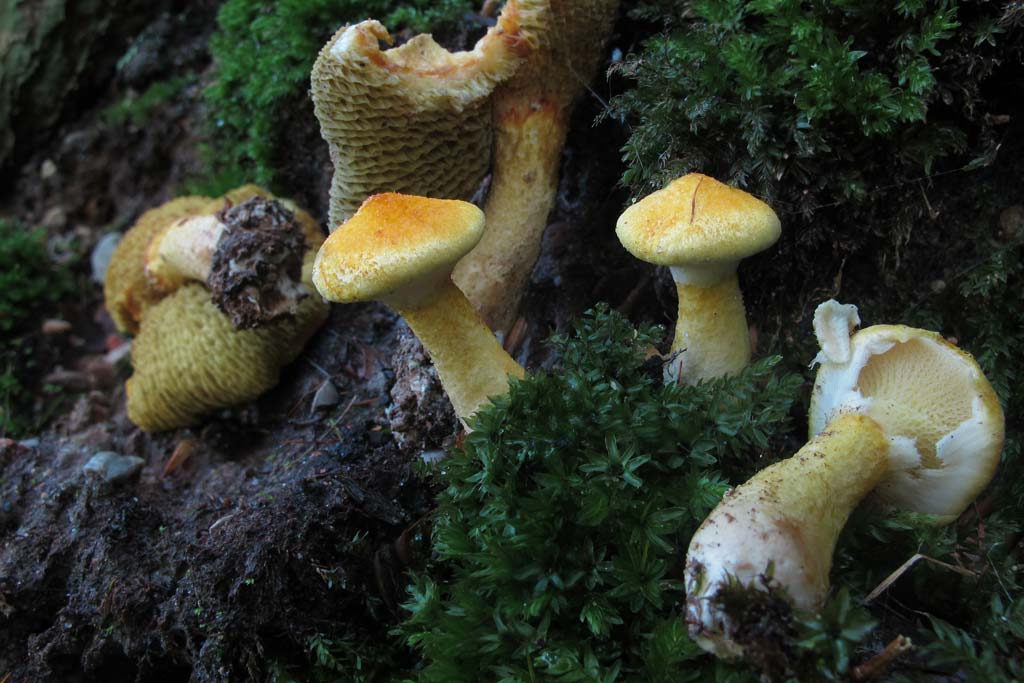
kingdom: Fungi
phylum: Basidiomycota
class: Agaricomycetes
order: Boletales
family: Suillaceae
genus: Suillus
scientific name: Suillus cavipes
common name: hulstokket slimrørhat, gul form
